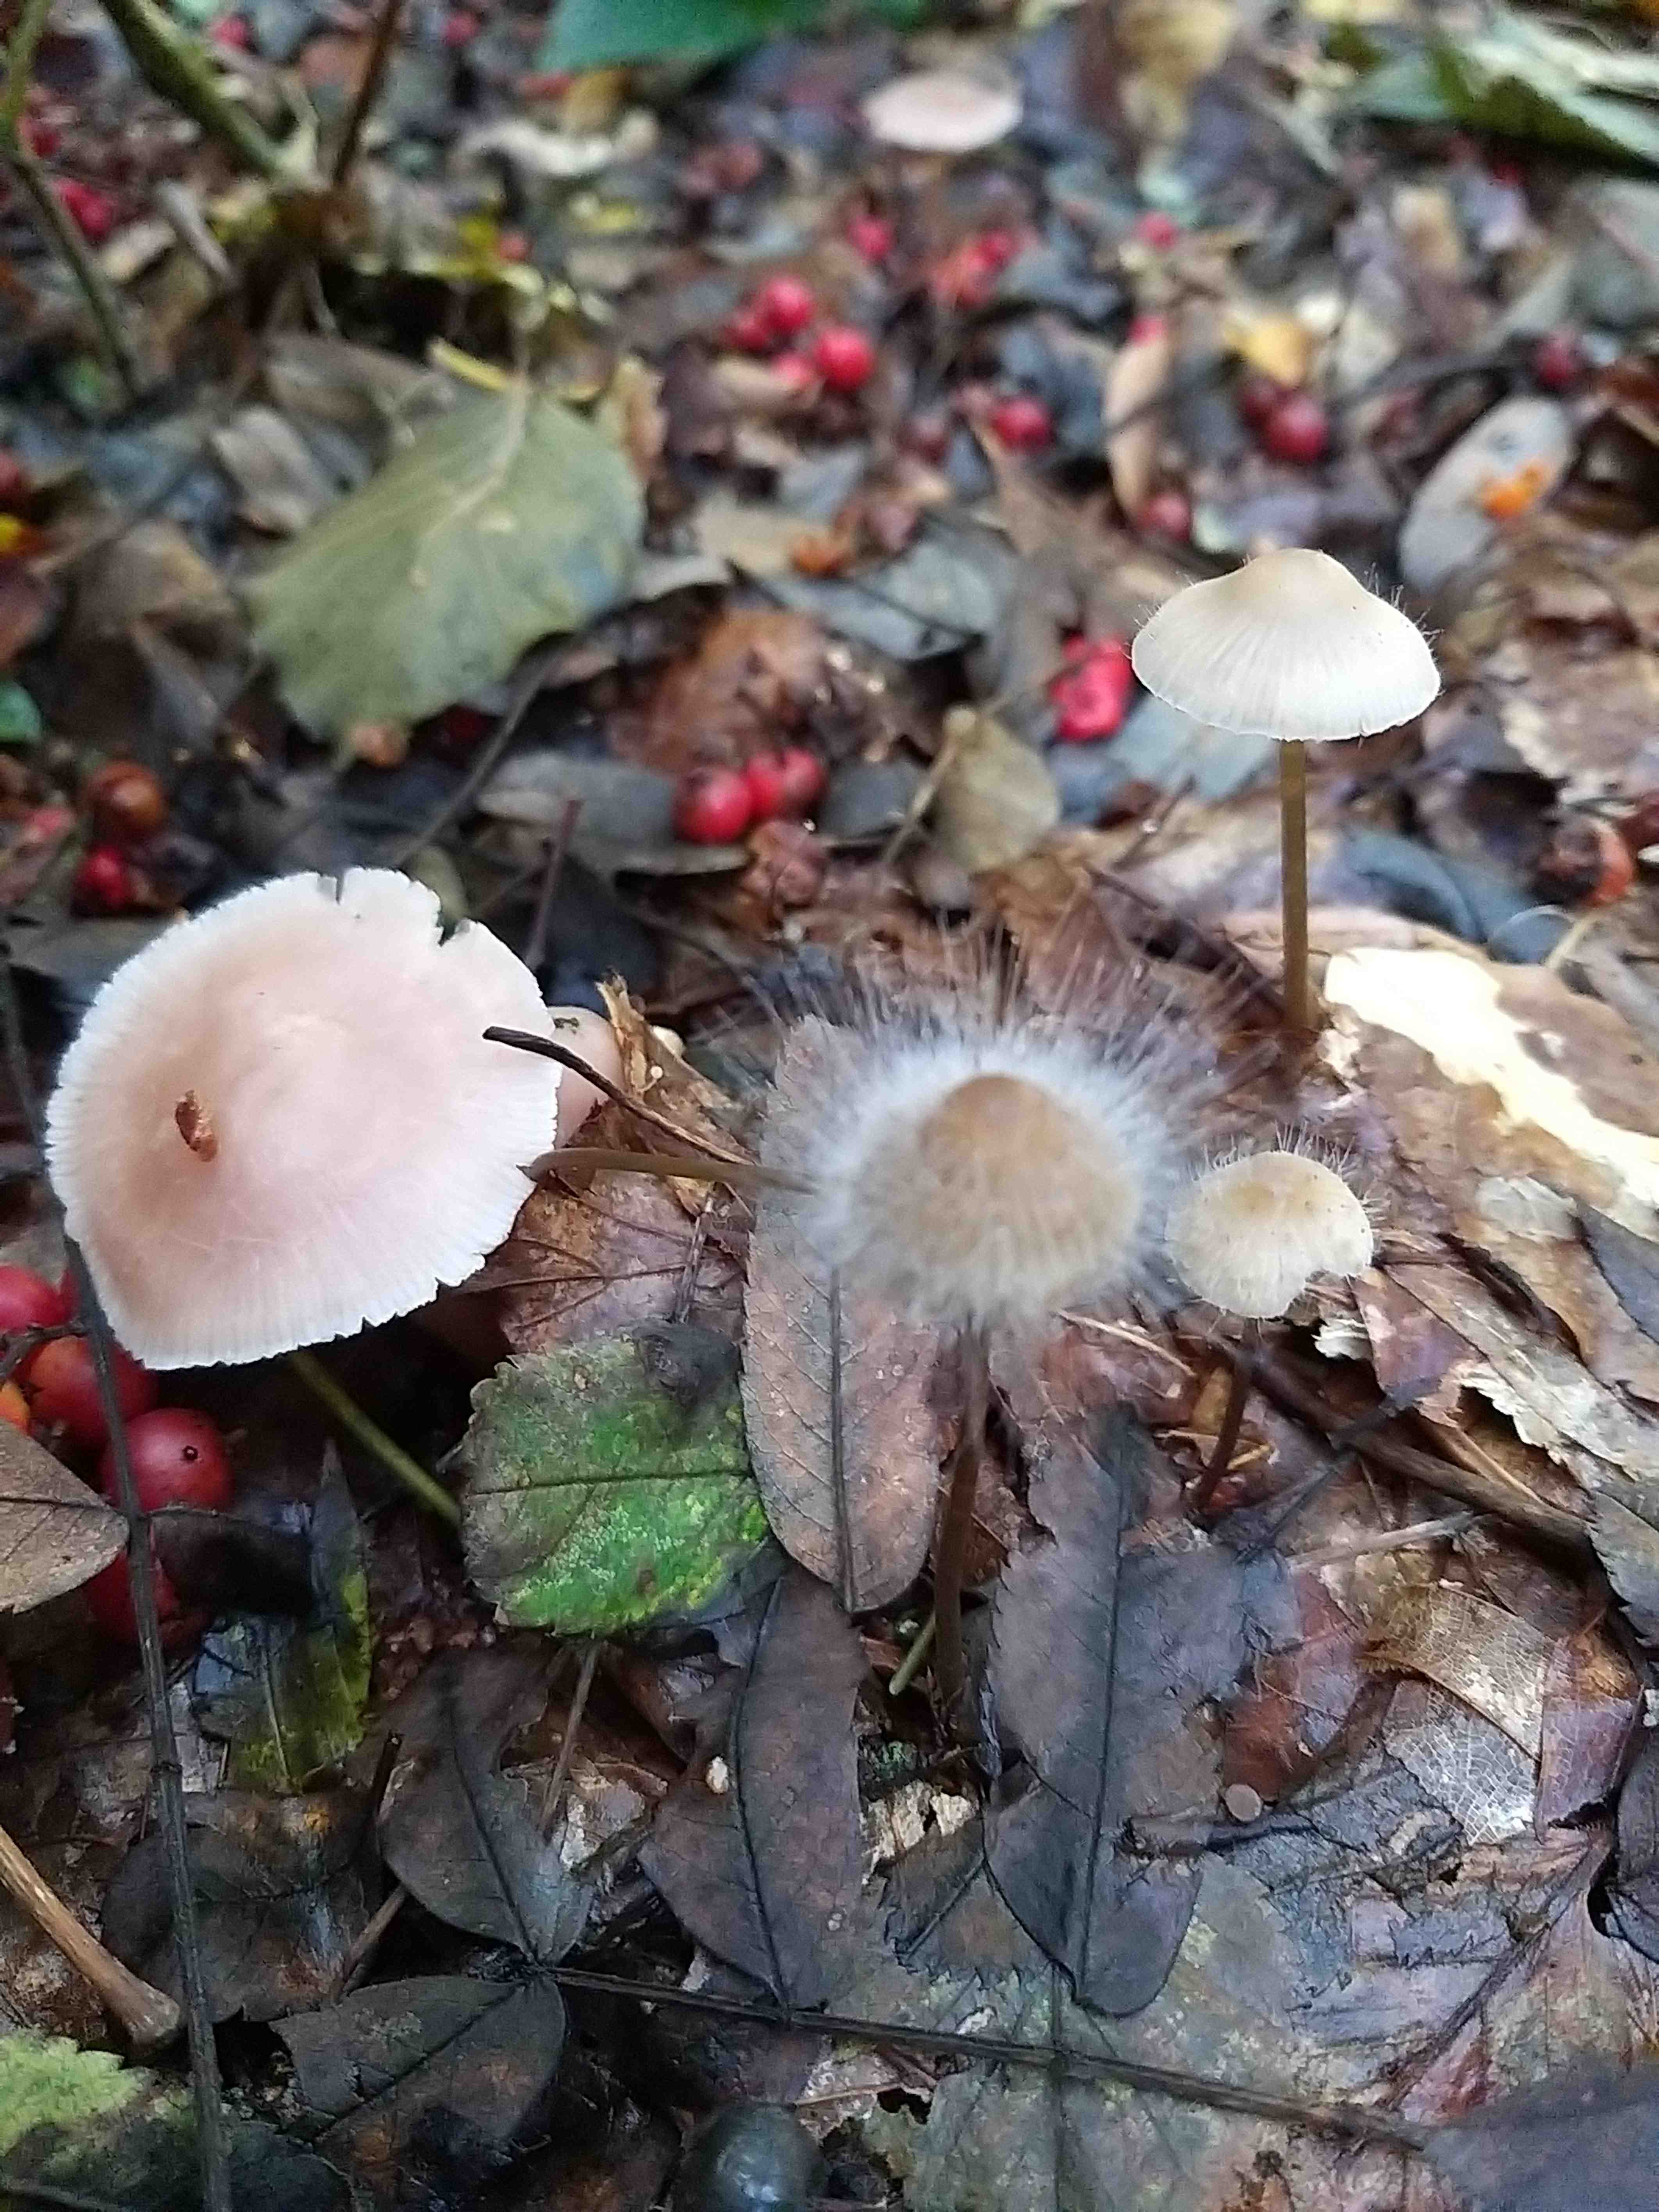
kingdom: Fungi
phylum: Mucoromycota
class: Mucoromycetes
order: Mucorales
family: Phycomycetaceae
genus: Spinellus
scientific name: Spinellus fusiger
